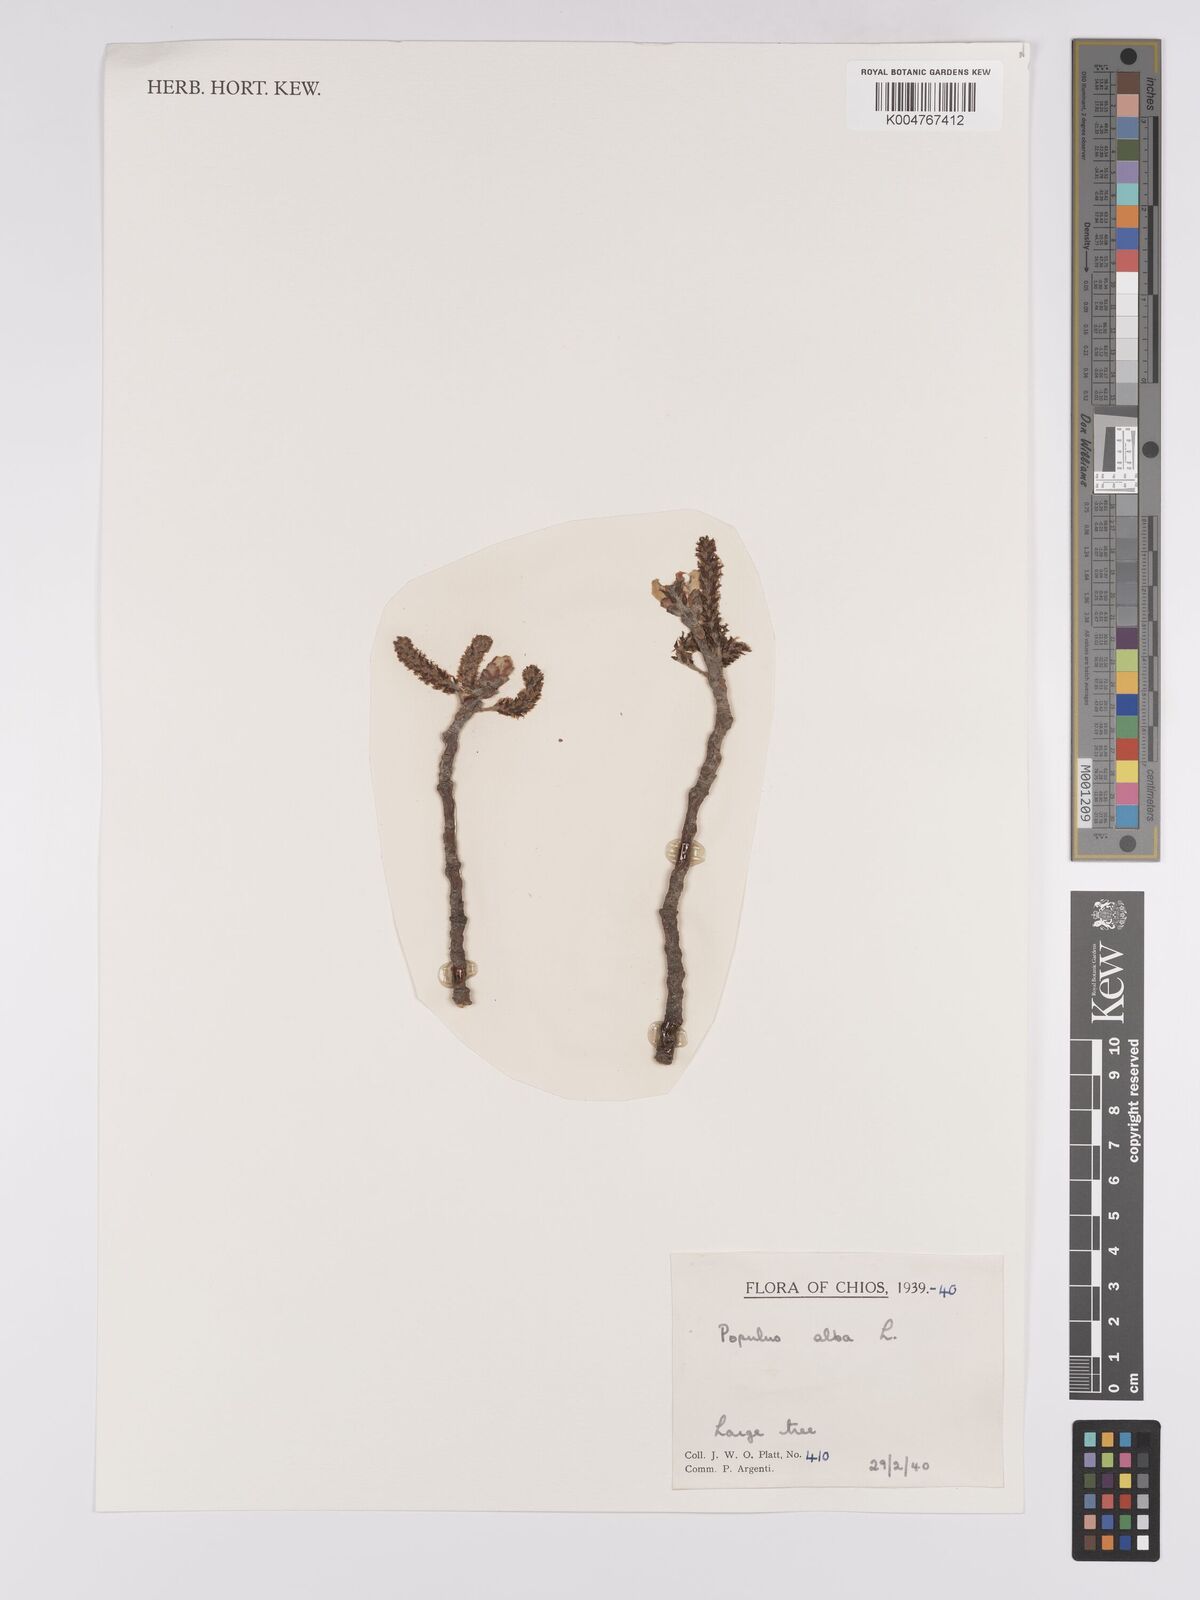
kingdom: Plantae
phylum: Tracheophyta
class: Magnoliopsida
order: Malpighiales
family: Salicaceae
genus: Populus
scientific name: Populus alba
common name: White poplar
